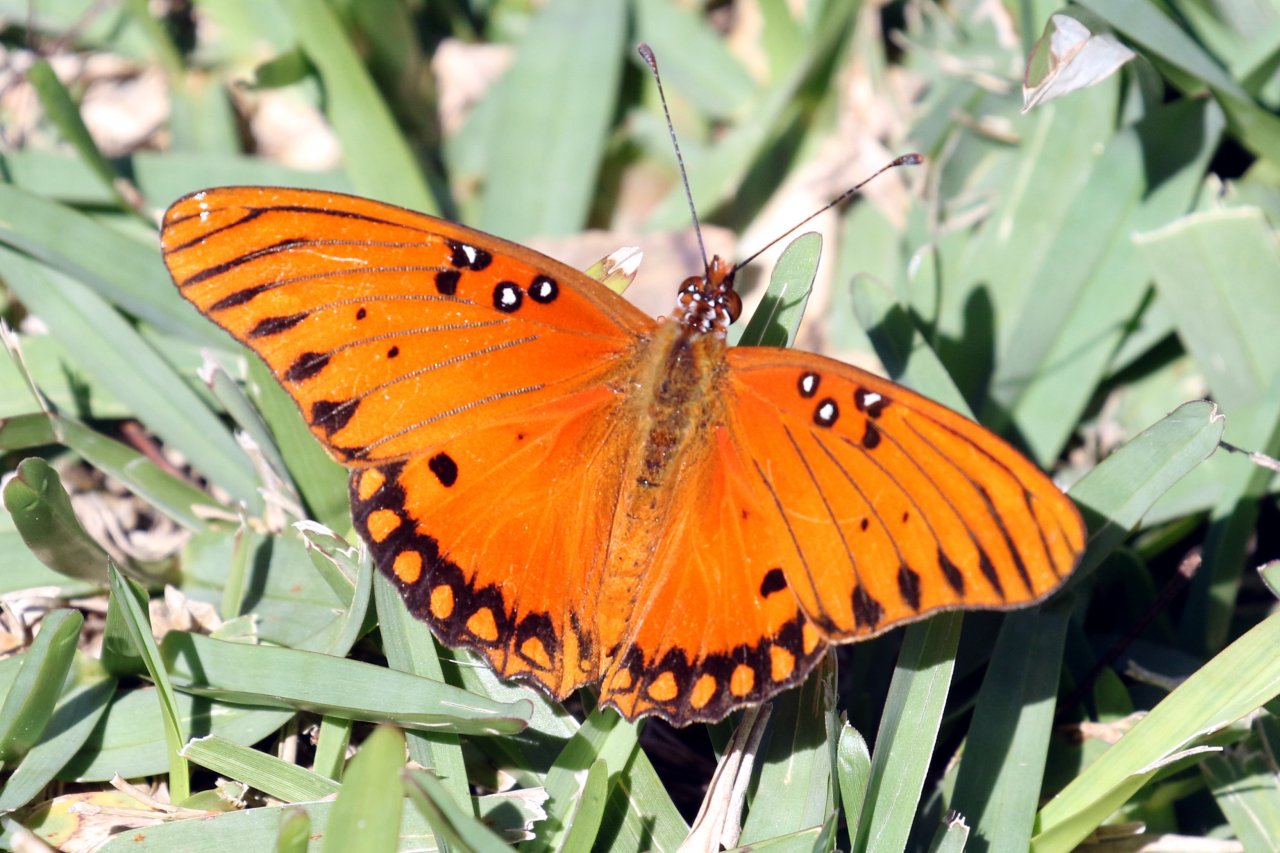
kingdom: Animalia
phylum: Arthropoda
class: Insecta
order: Lepidoptera
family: Nymphalidae
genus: Dione
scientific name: Dione vanillae
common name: Gulf Fritillary
